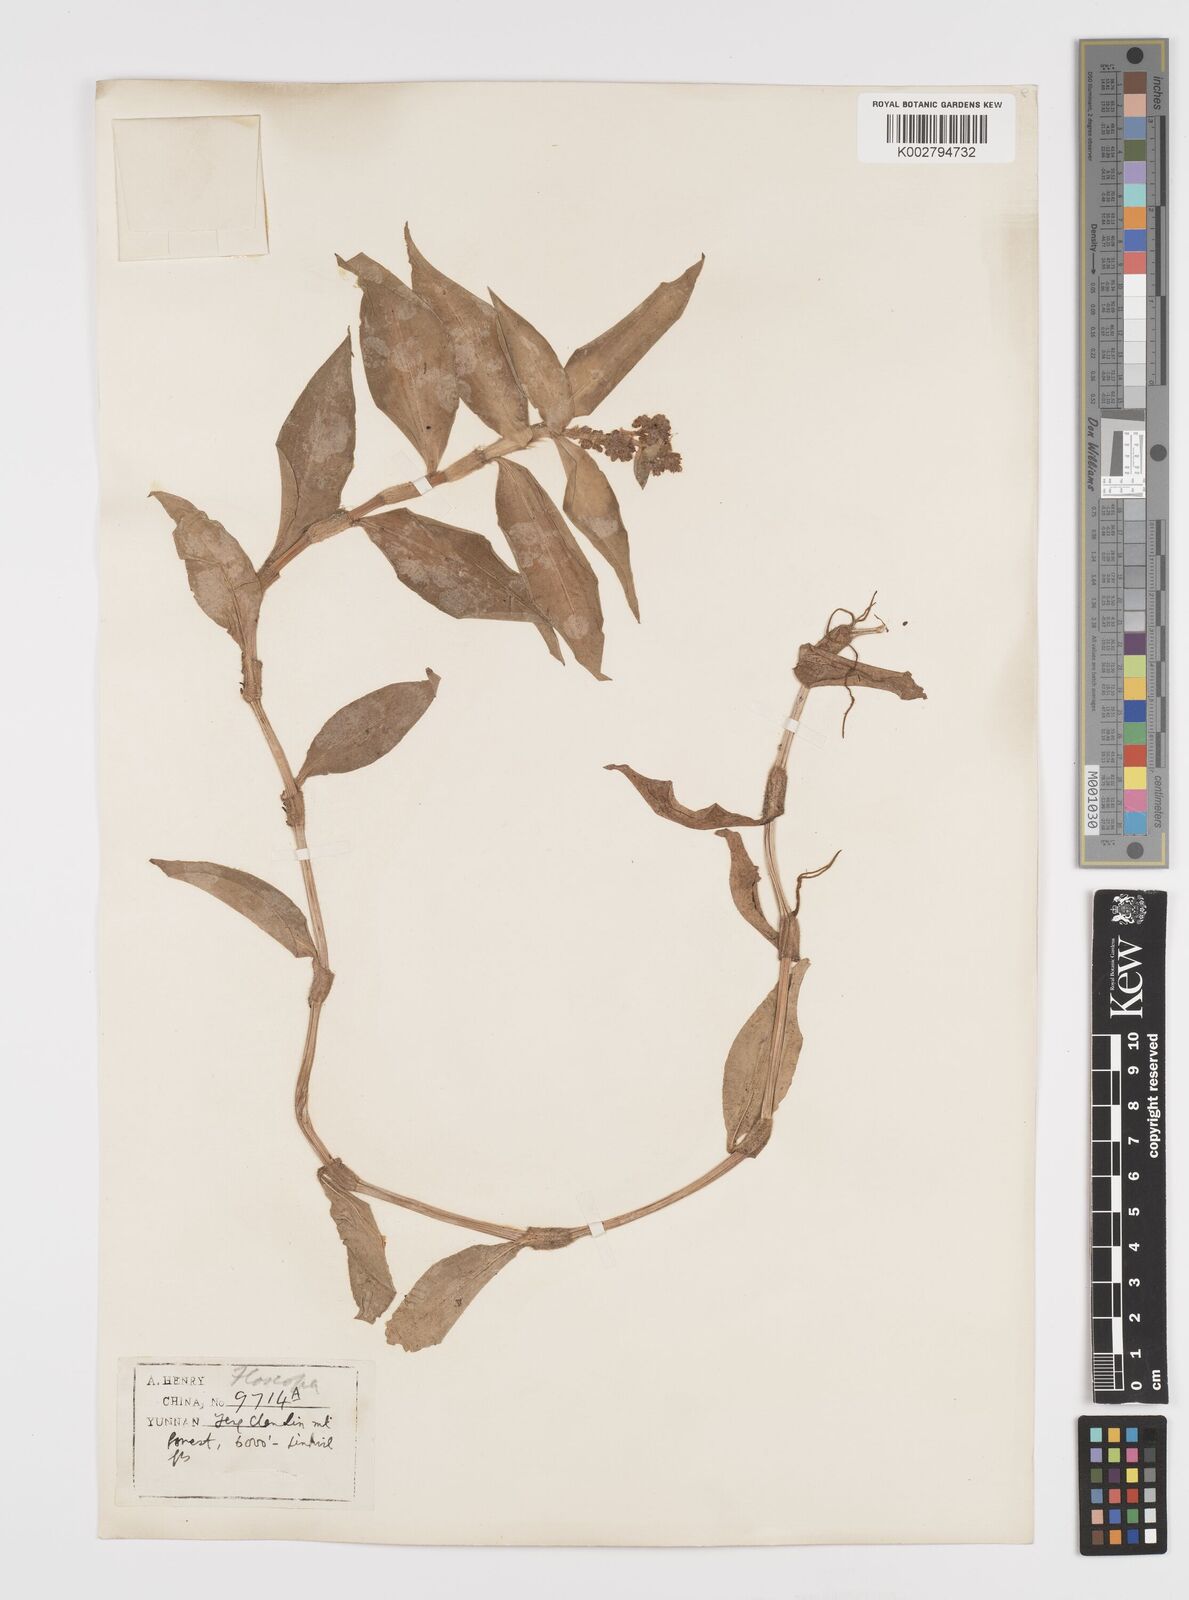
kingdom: Plantae
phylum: Tracheophyta
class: Liliopsida
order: Commelinales
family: Commelinaceae
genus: Floscopa
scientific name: Floscopa scandens
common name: Climbing flower cup
